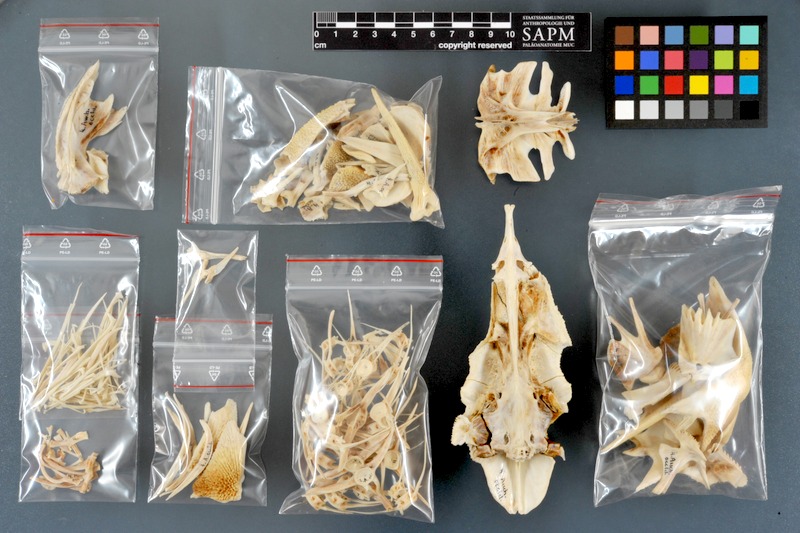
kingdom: Animalia
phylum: Chordata
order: Siluriformes
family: Claroteidae
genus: Auchenoglanis
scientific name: Auchenoglanis occidentalis
